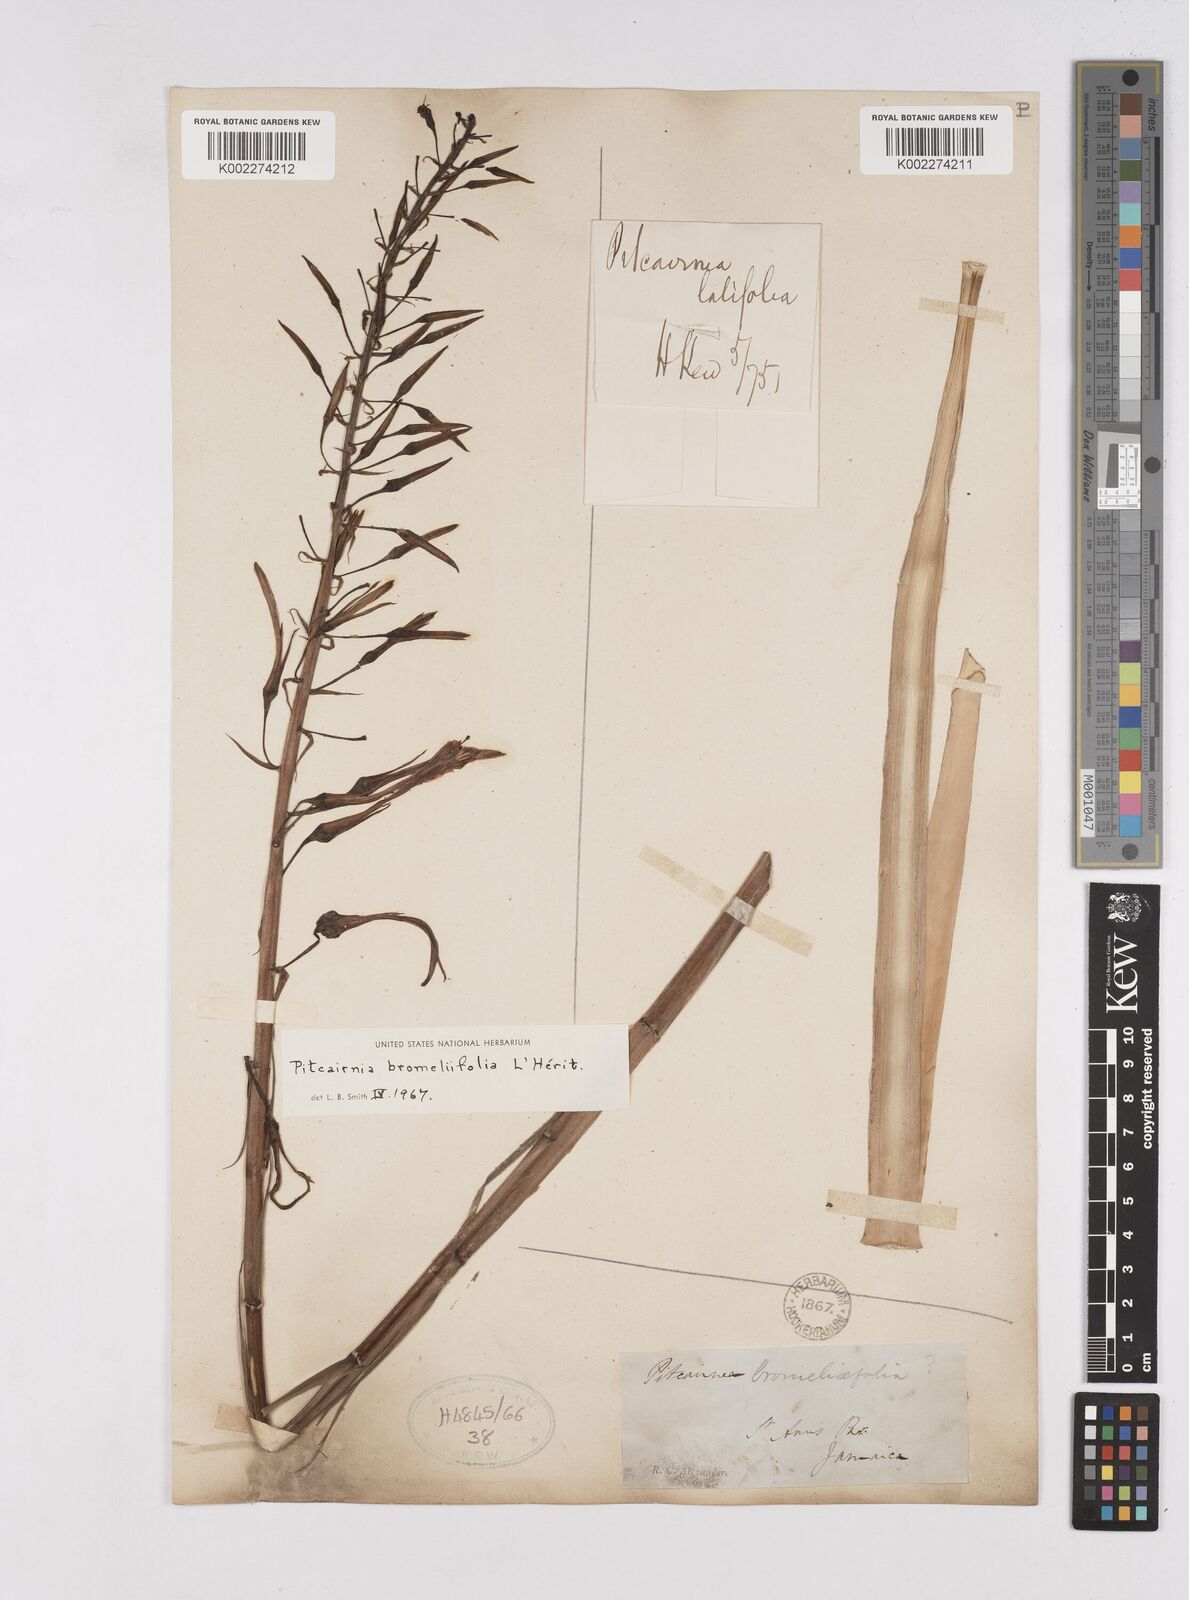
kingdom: Plantae
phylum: Tracheophyta
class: Liliopsida
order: Poales
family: Bromeliaceae
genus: Pitcairnia
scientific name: Pitcairnia bromeliifolia
